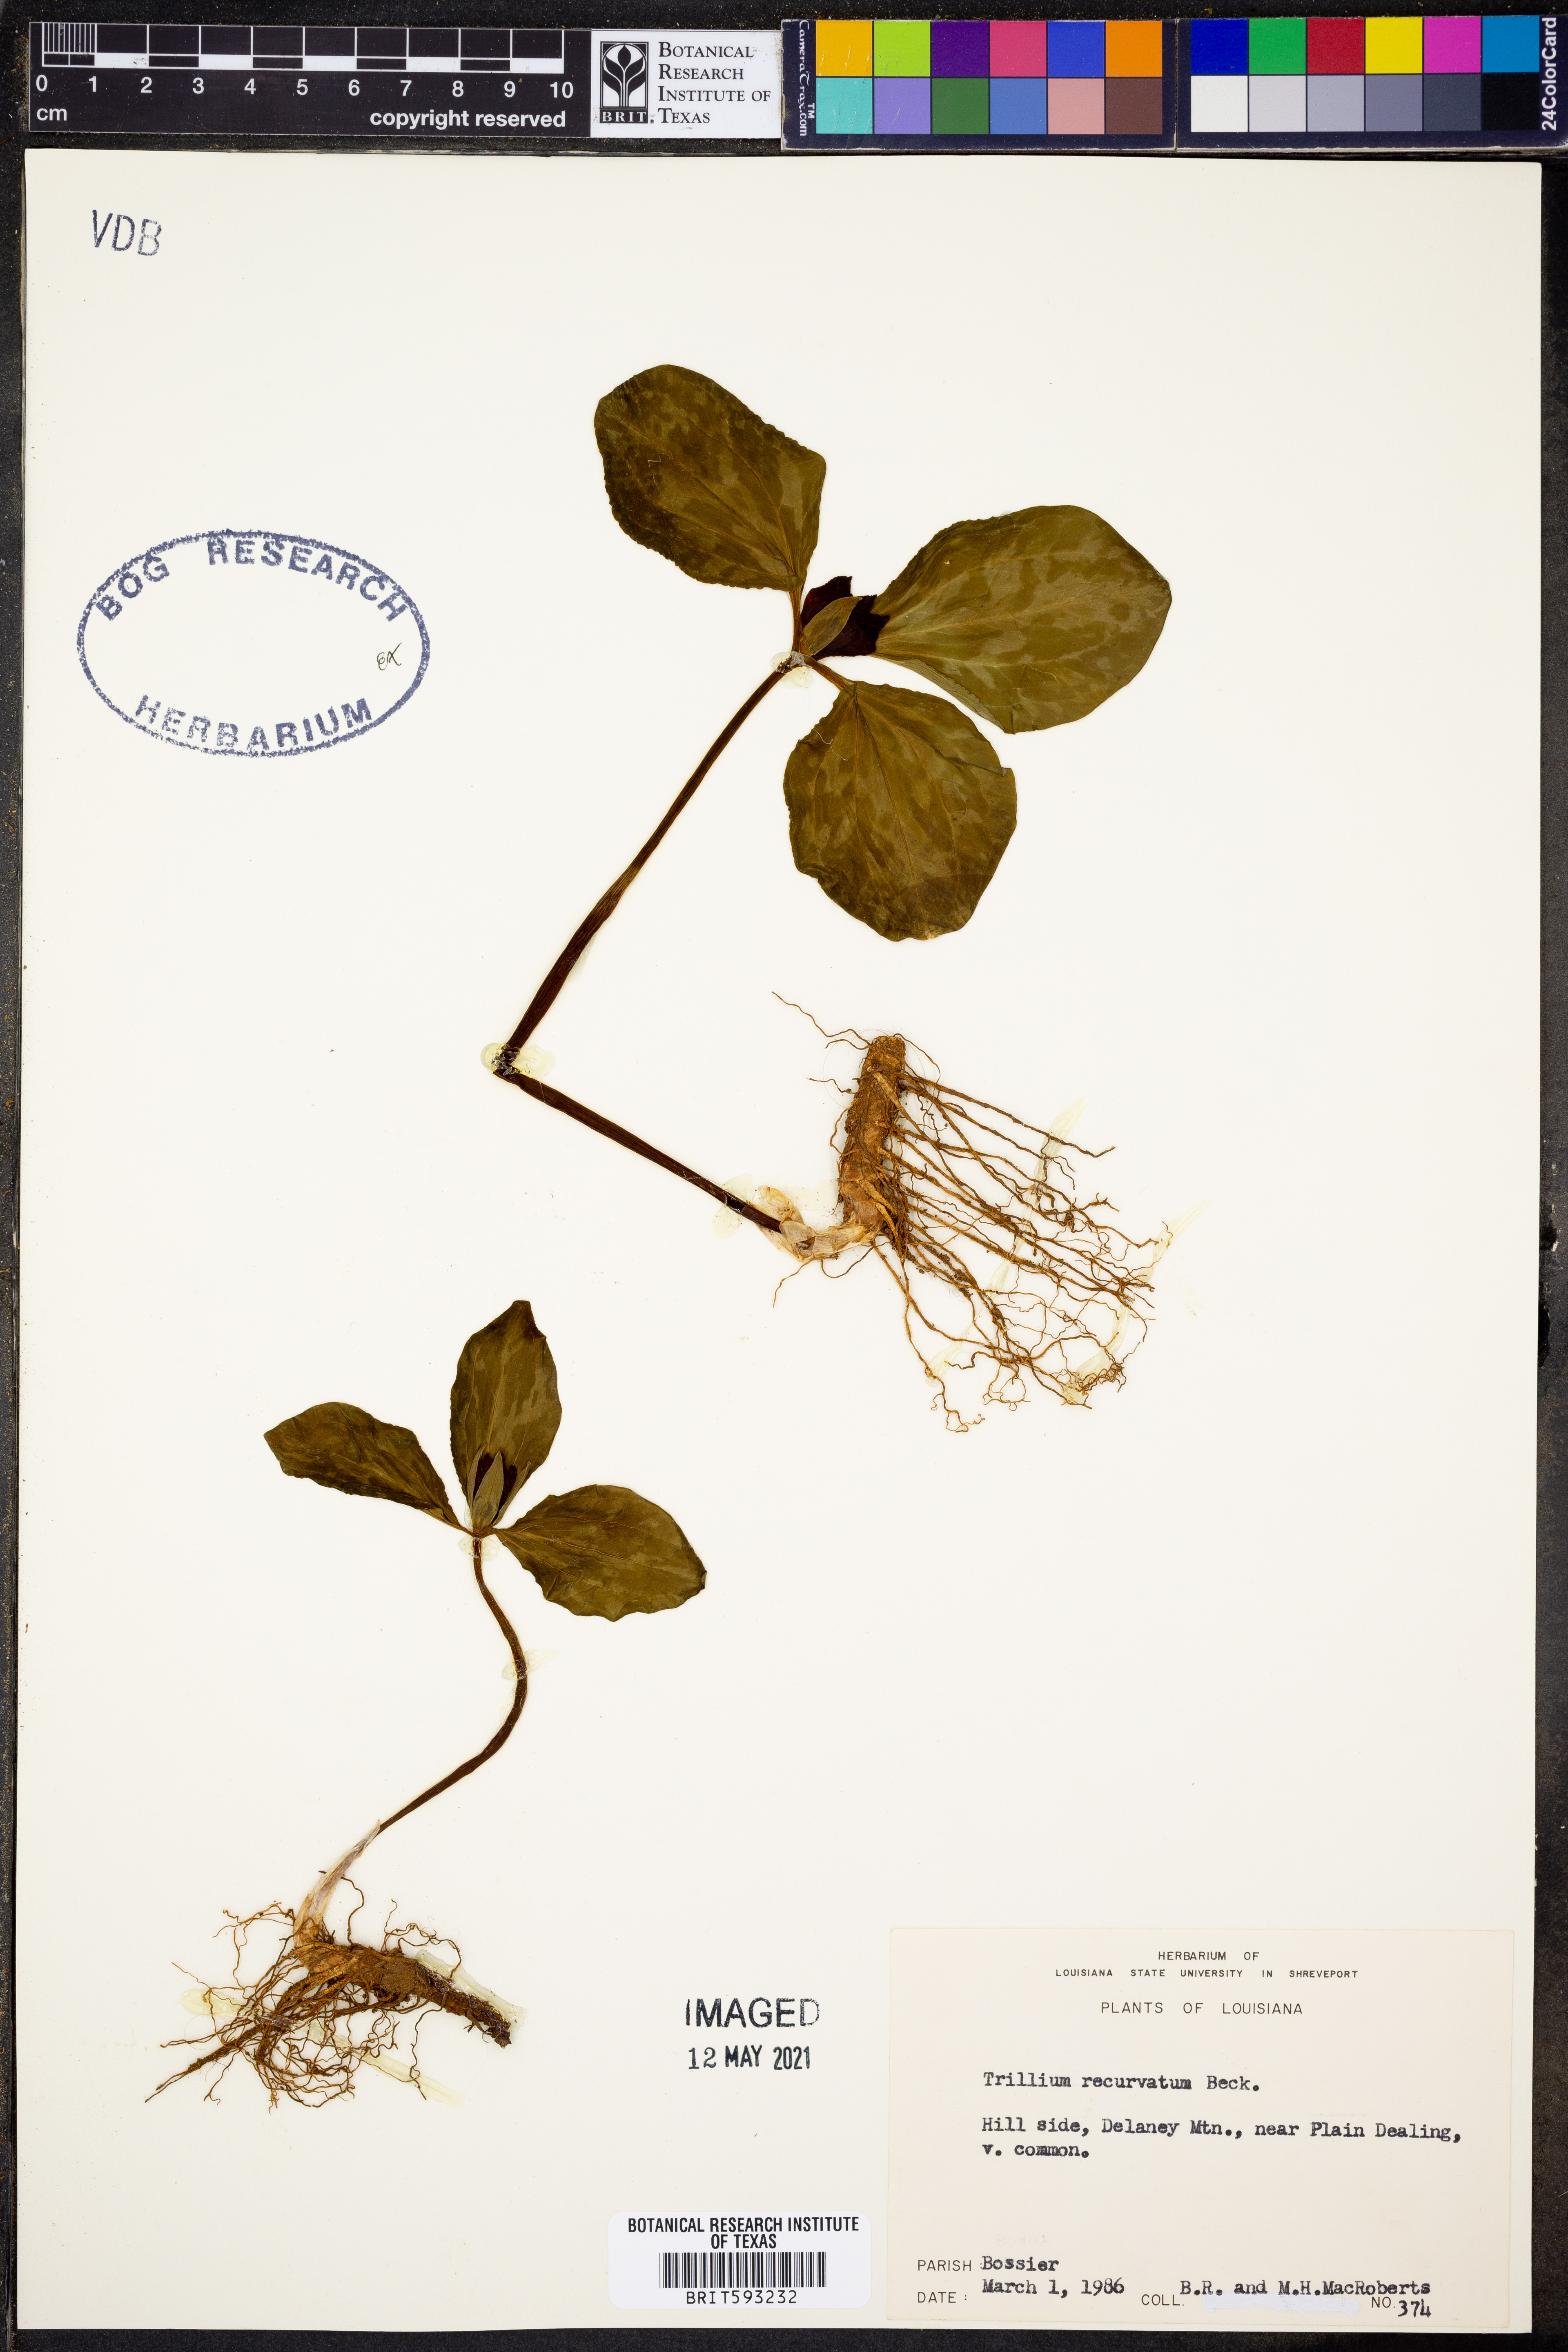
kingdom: Plantae
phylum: Tracheophyta
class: Liliopsida
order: Liliales
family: Melanthiaceae
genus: Trillium
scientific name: Trillium recurvatum
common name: Bloody butcher
